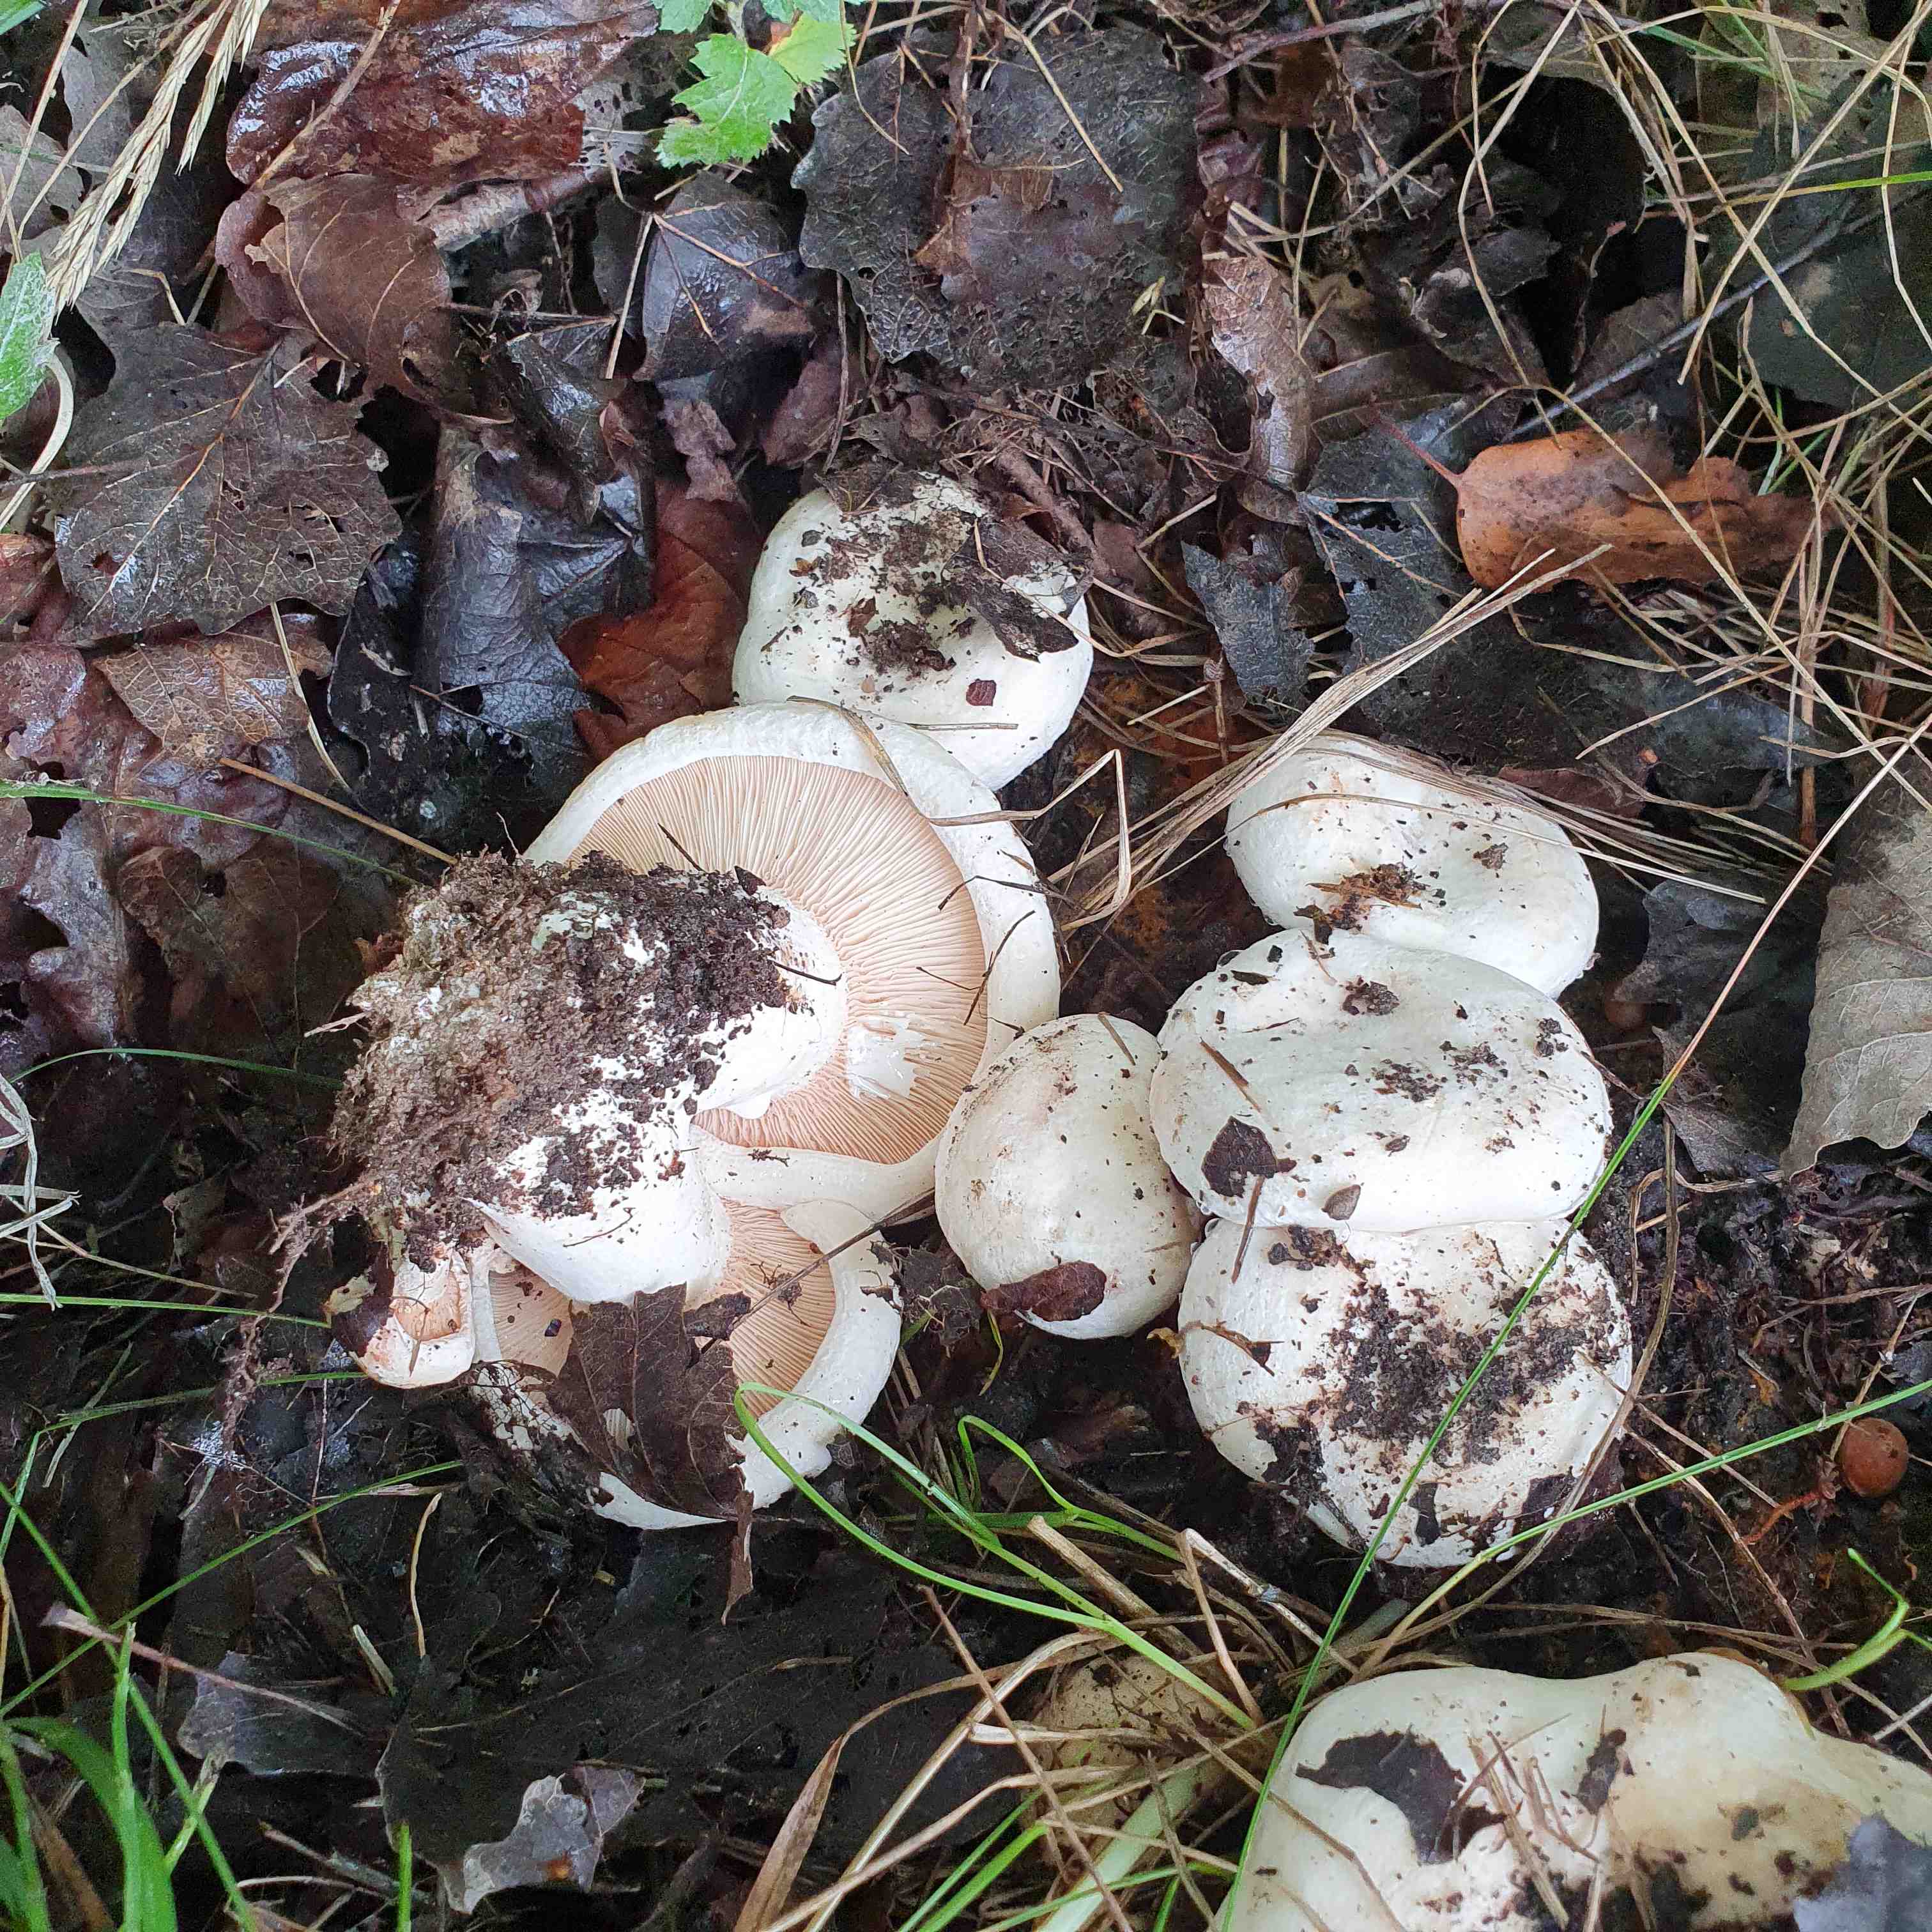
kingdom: Fungi
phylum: Basidiomycota
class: Agaricomycetes
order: Russulales
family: Russulaceae
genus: Lactarius
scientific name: Lactarius controversus
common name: rosabladet mælkehat
